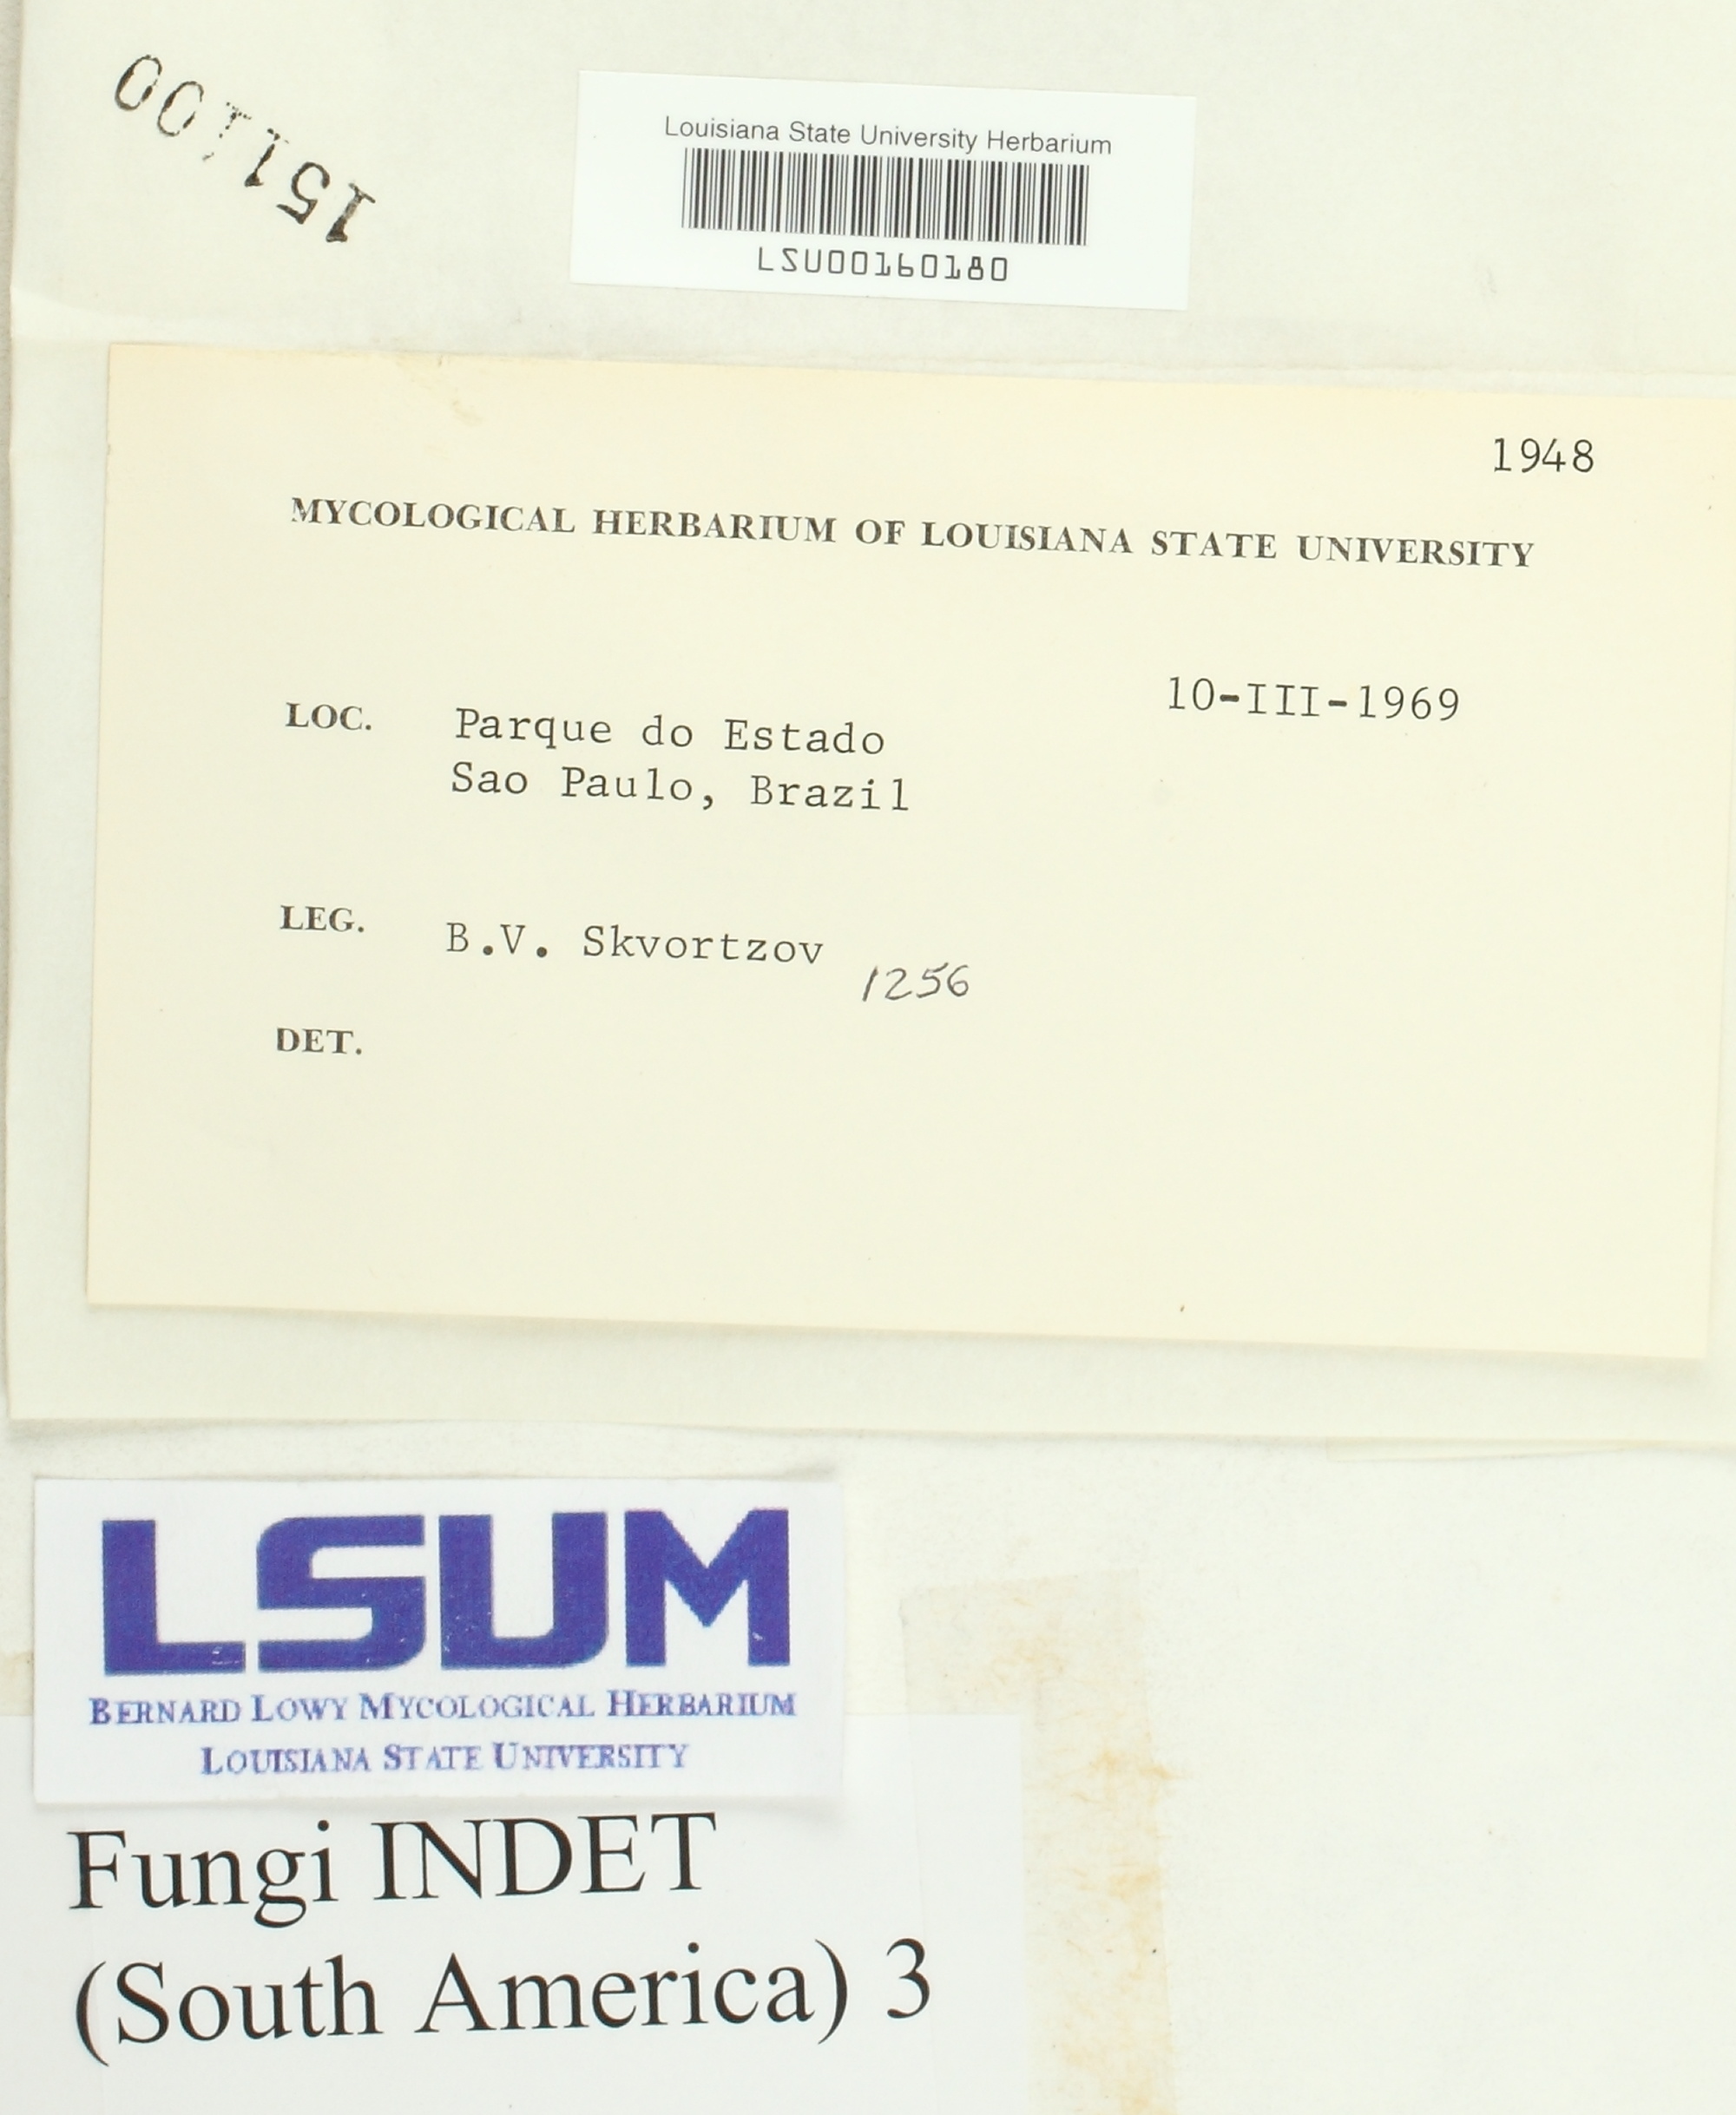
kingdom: Fungi
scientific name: Fungi
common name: Fungi
